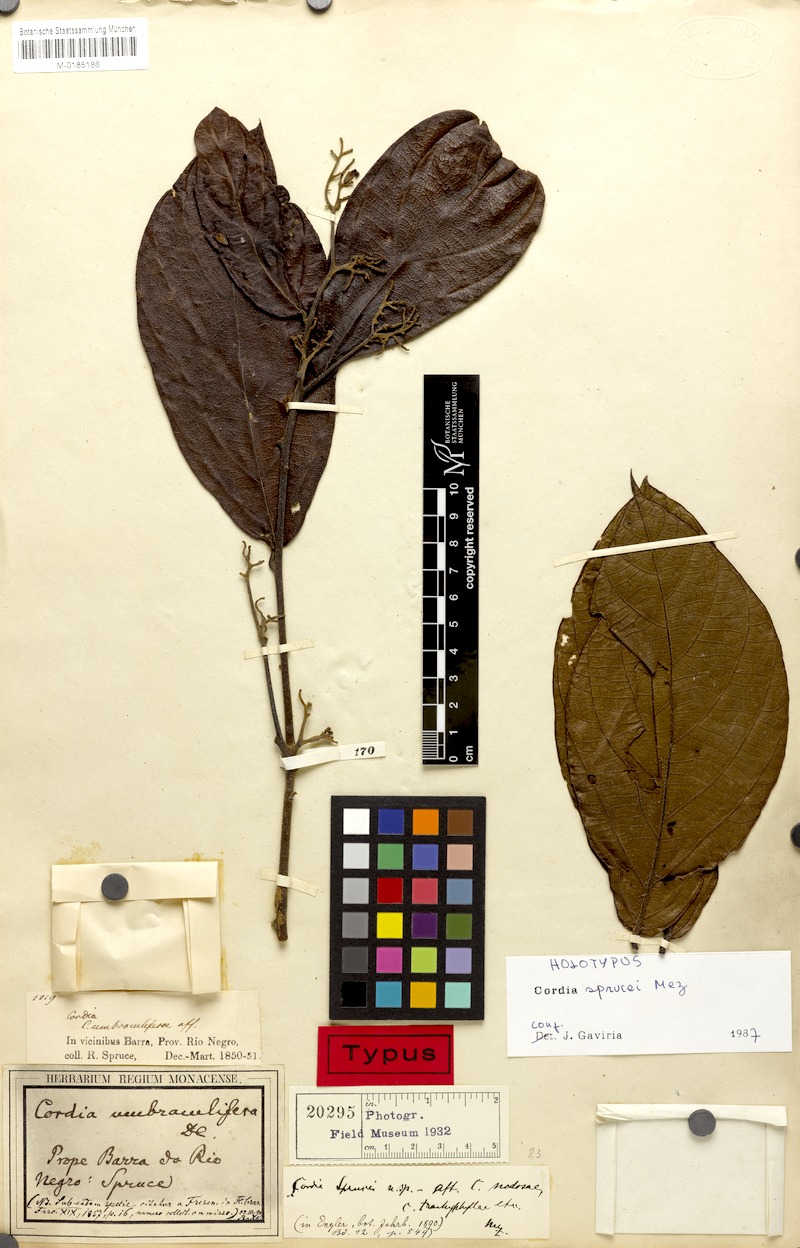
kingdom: Plantae
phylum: Tracheophyta
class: Magnoliopsida
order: Boraginales
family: Cordiaceae
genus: Cordia
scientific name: Cordia sprucei
